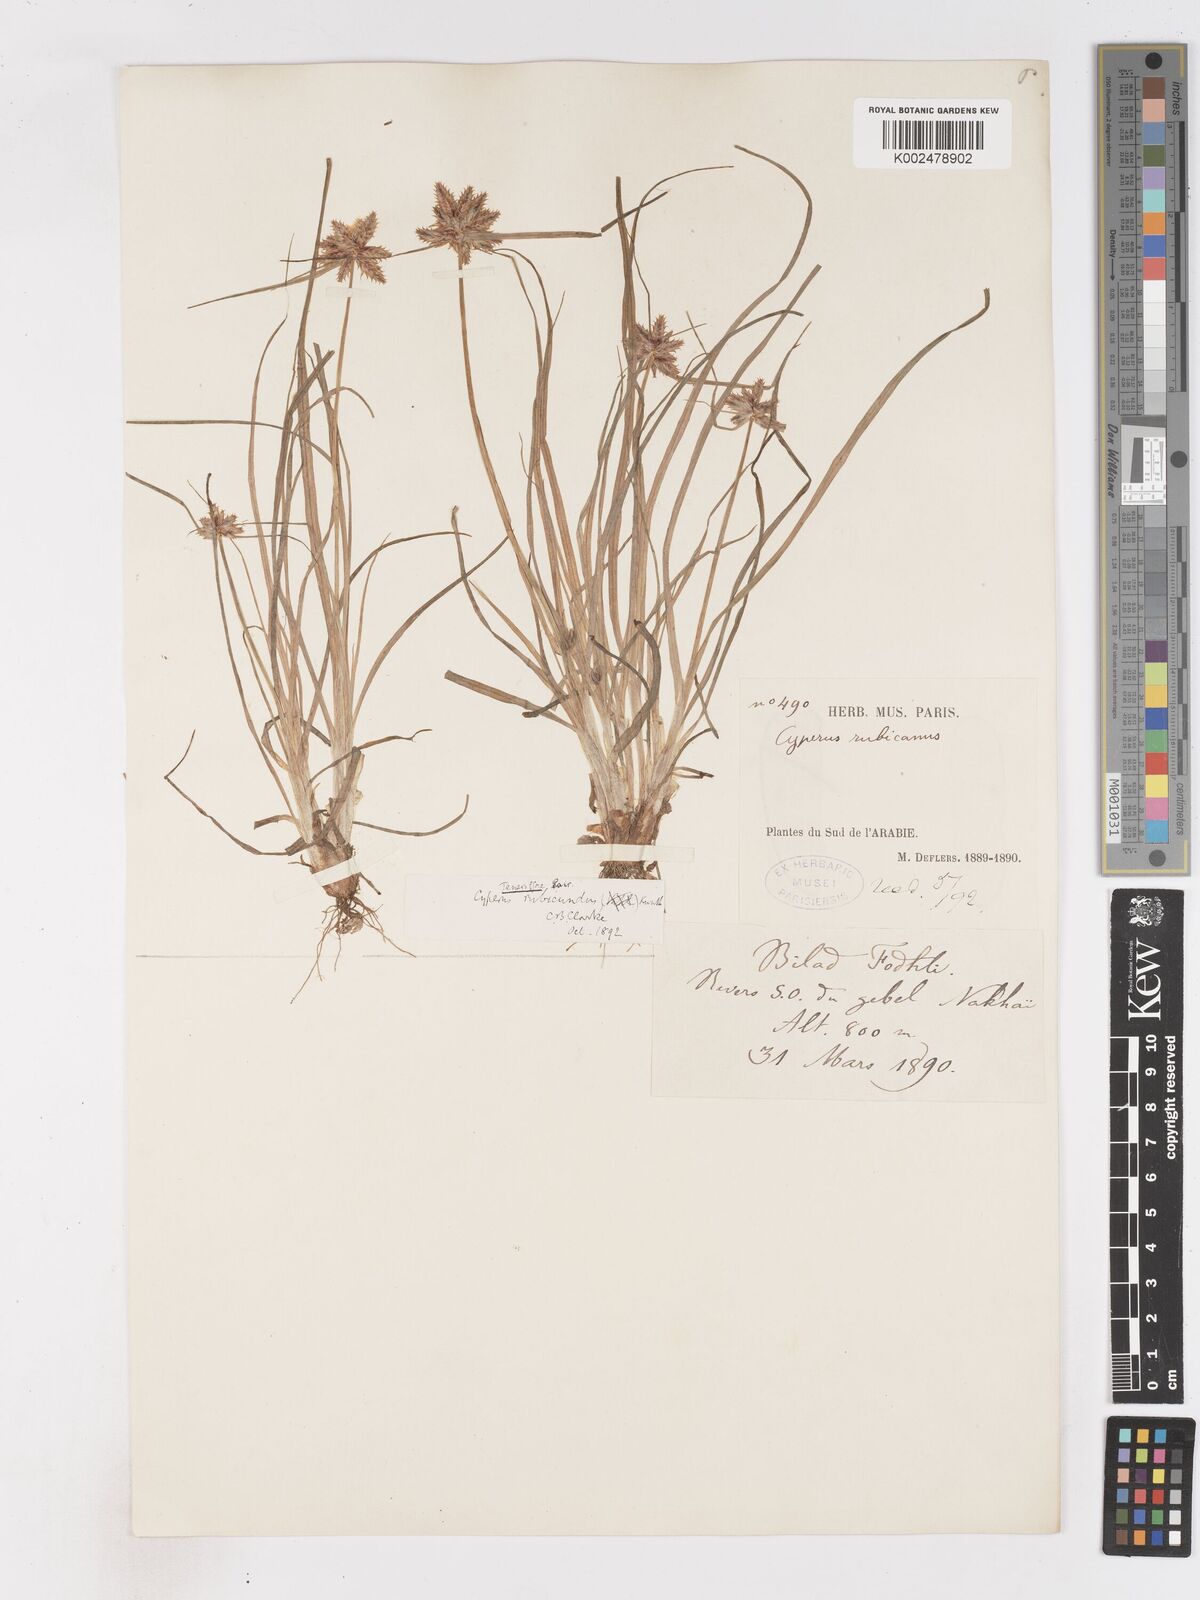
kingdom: Plantae
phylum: Tracheophyta
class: Liliopsida
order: Poales
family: Cyperaceae
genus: Cyperus
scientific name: Cyperus rubicundus
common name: Coco-grass
